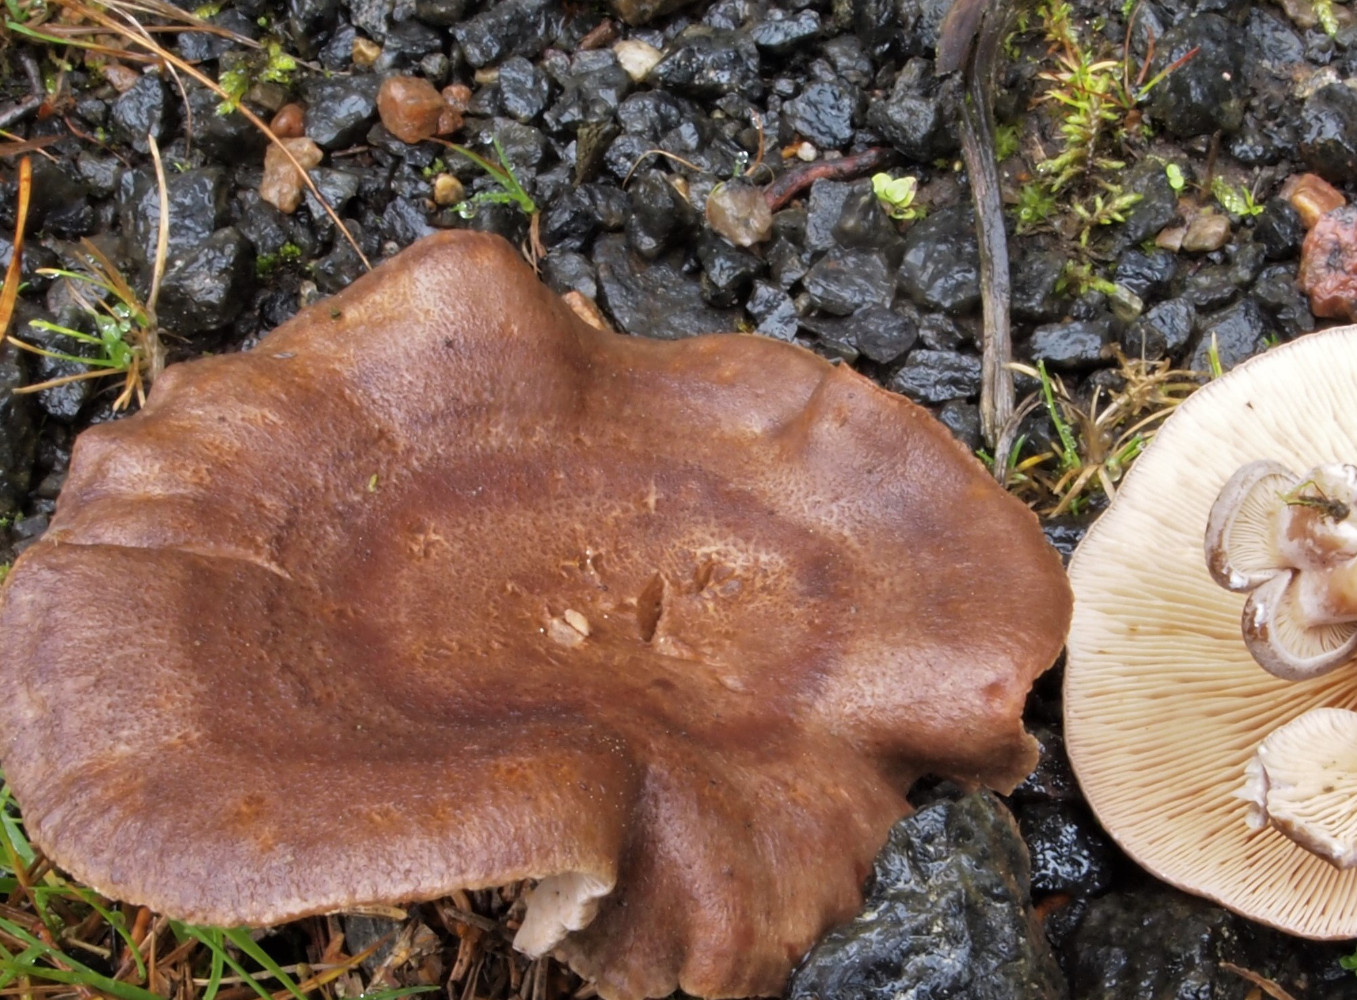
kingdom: Fungi
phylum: Basidiomycota
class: Agaricomycetes
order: Russulales
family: Russulaceae
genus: Lactarius
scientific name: Lactarius mammosus
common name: kokosbrun mælkehat
